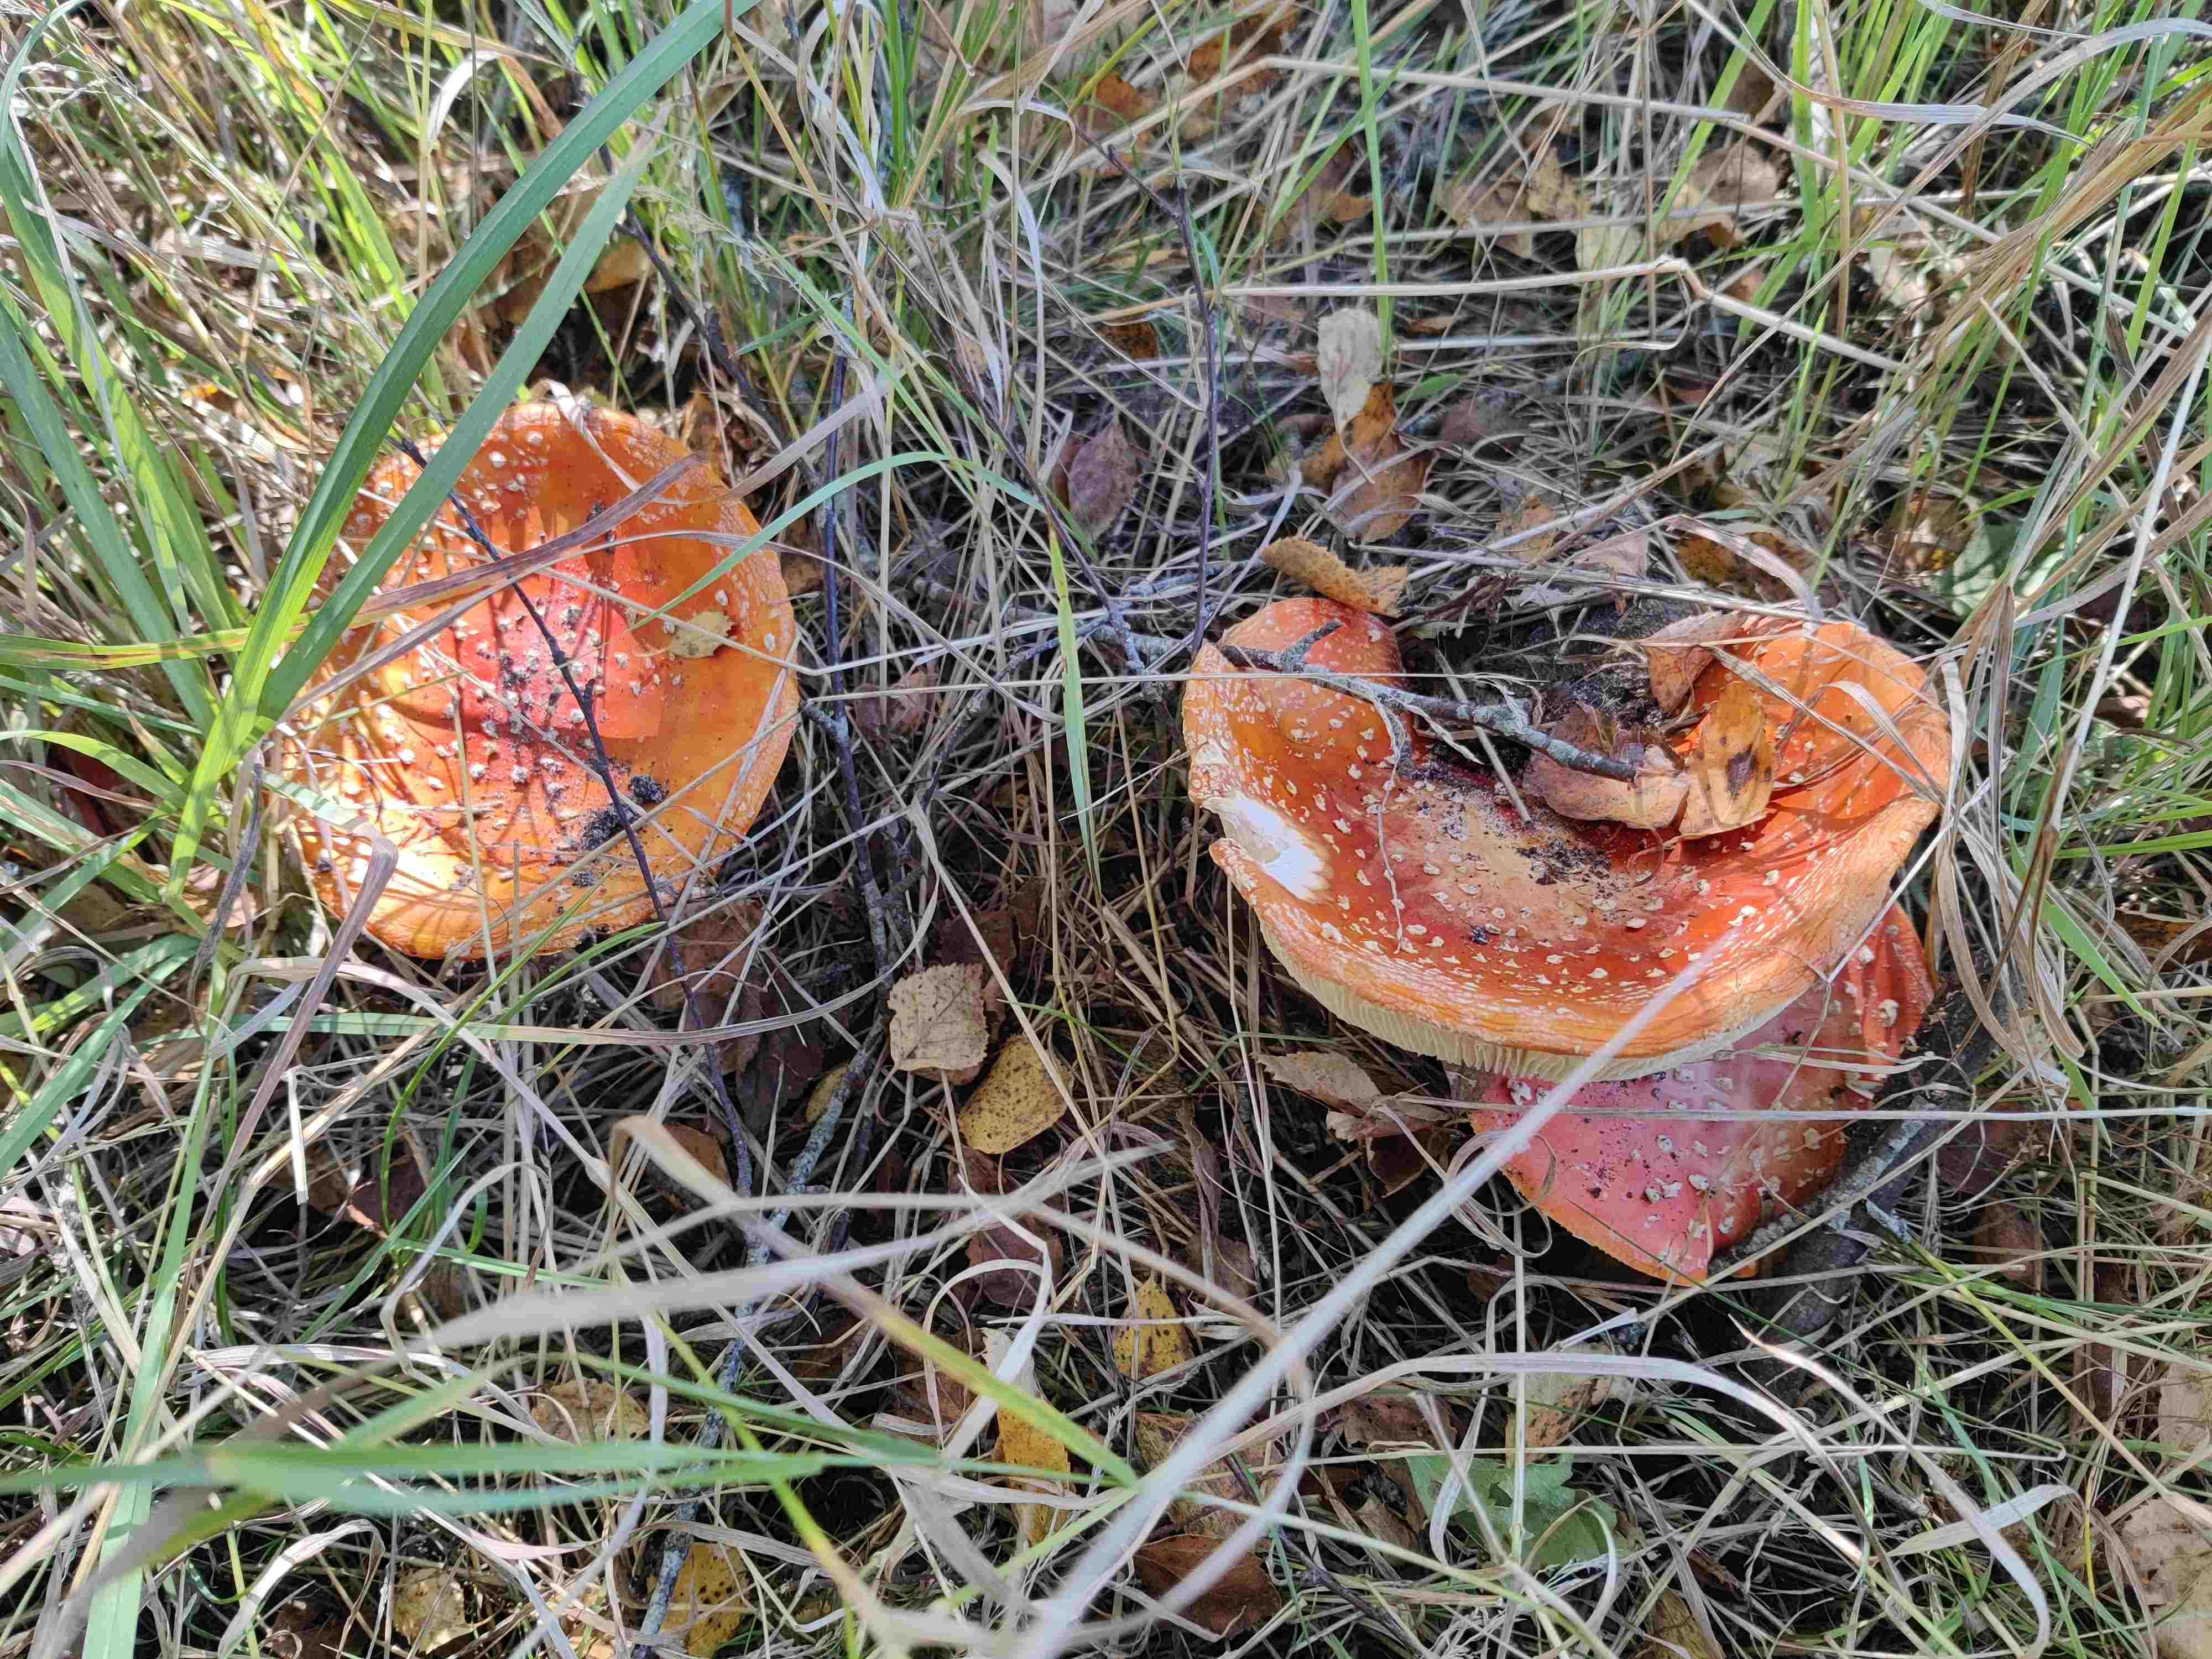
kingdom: Fungi
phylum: Basidiomycota
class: Agaricomycetes
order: Agaricales
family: Amanitaceae
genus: Amanita
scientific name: Amanita muscaria
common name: rød fluesvamp
